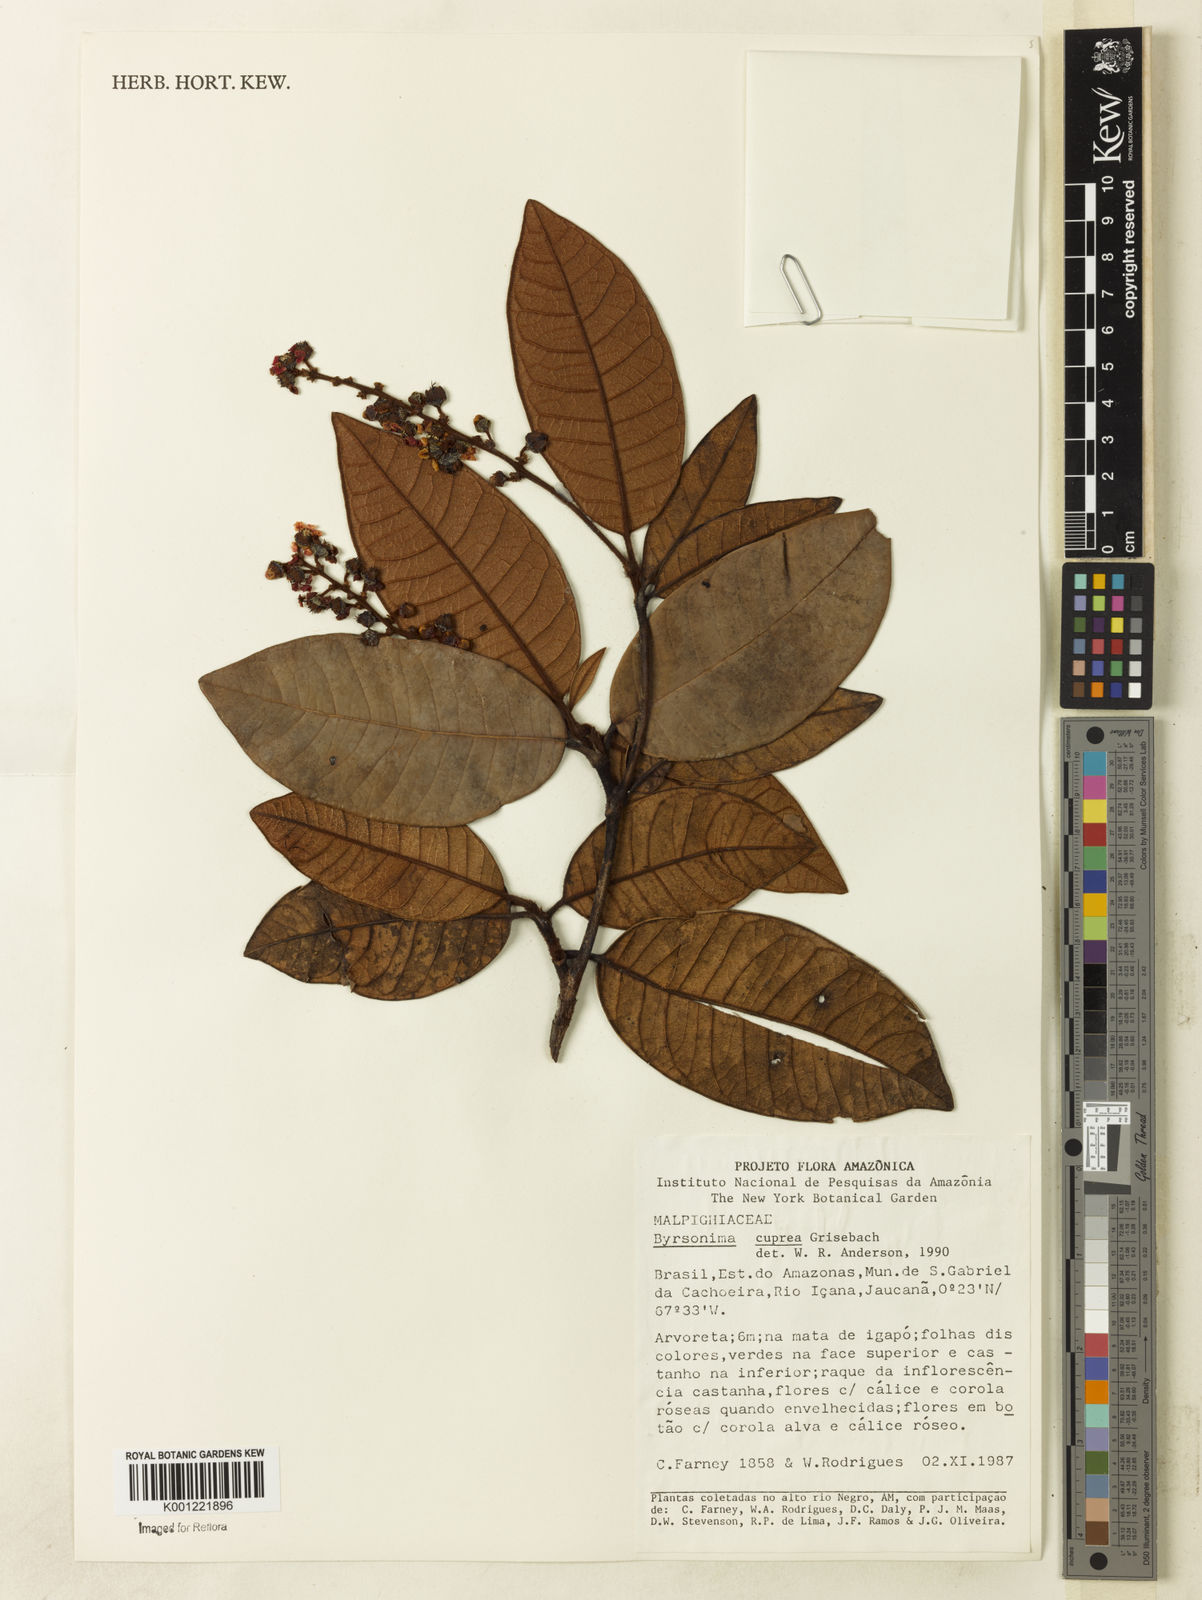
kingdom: Plantae
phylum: Tracheophyta
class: Magnoliopsida
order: Malpighiales
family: Malpighiaceae
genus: Byrsonima
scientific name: Byrsonima cuprea
